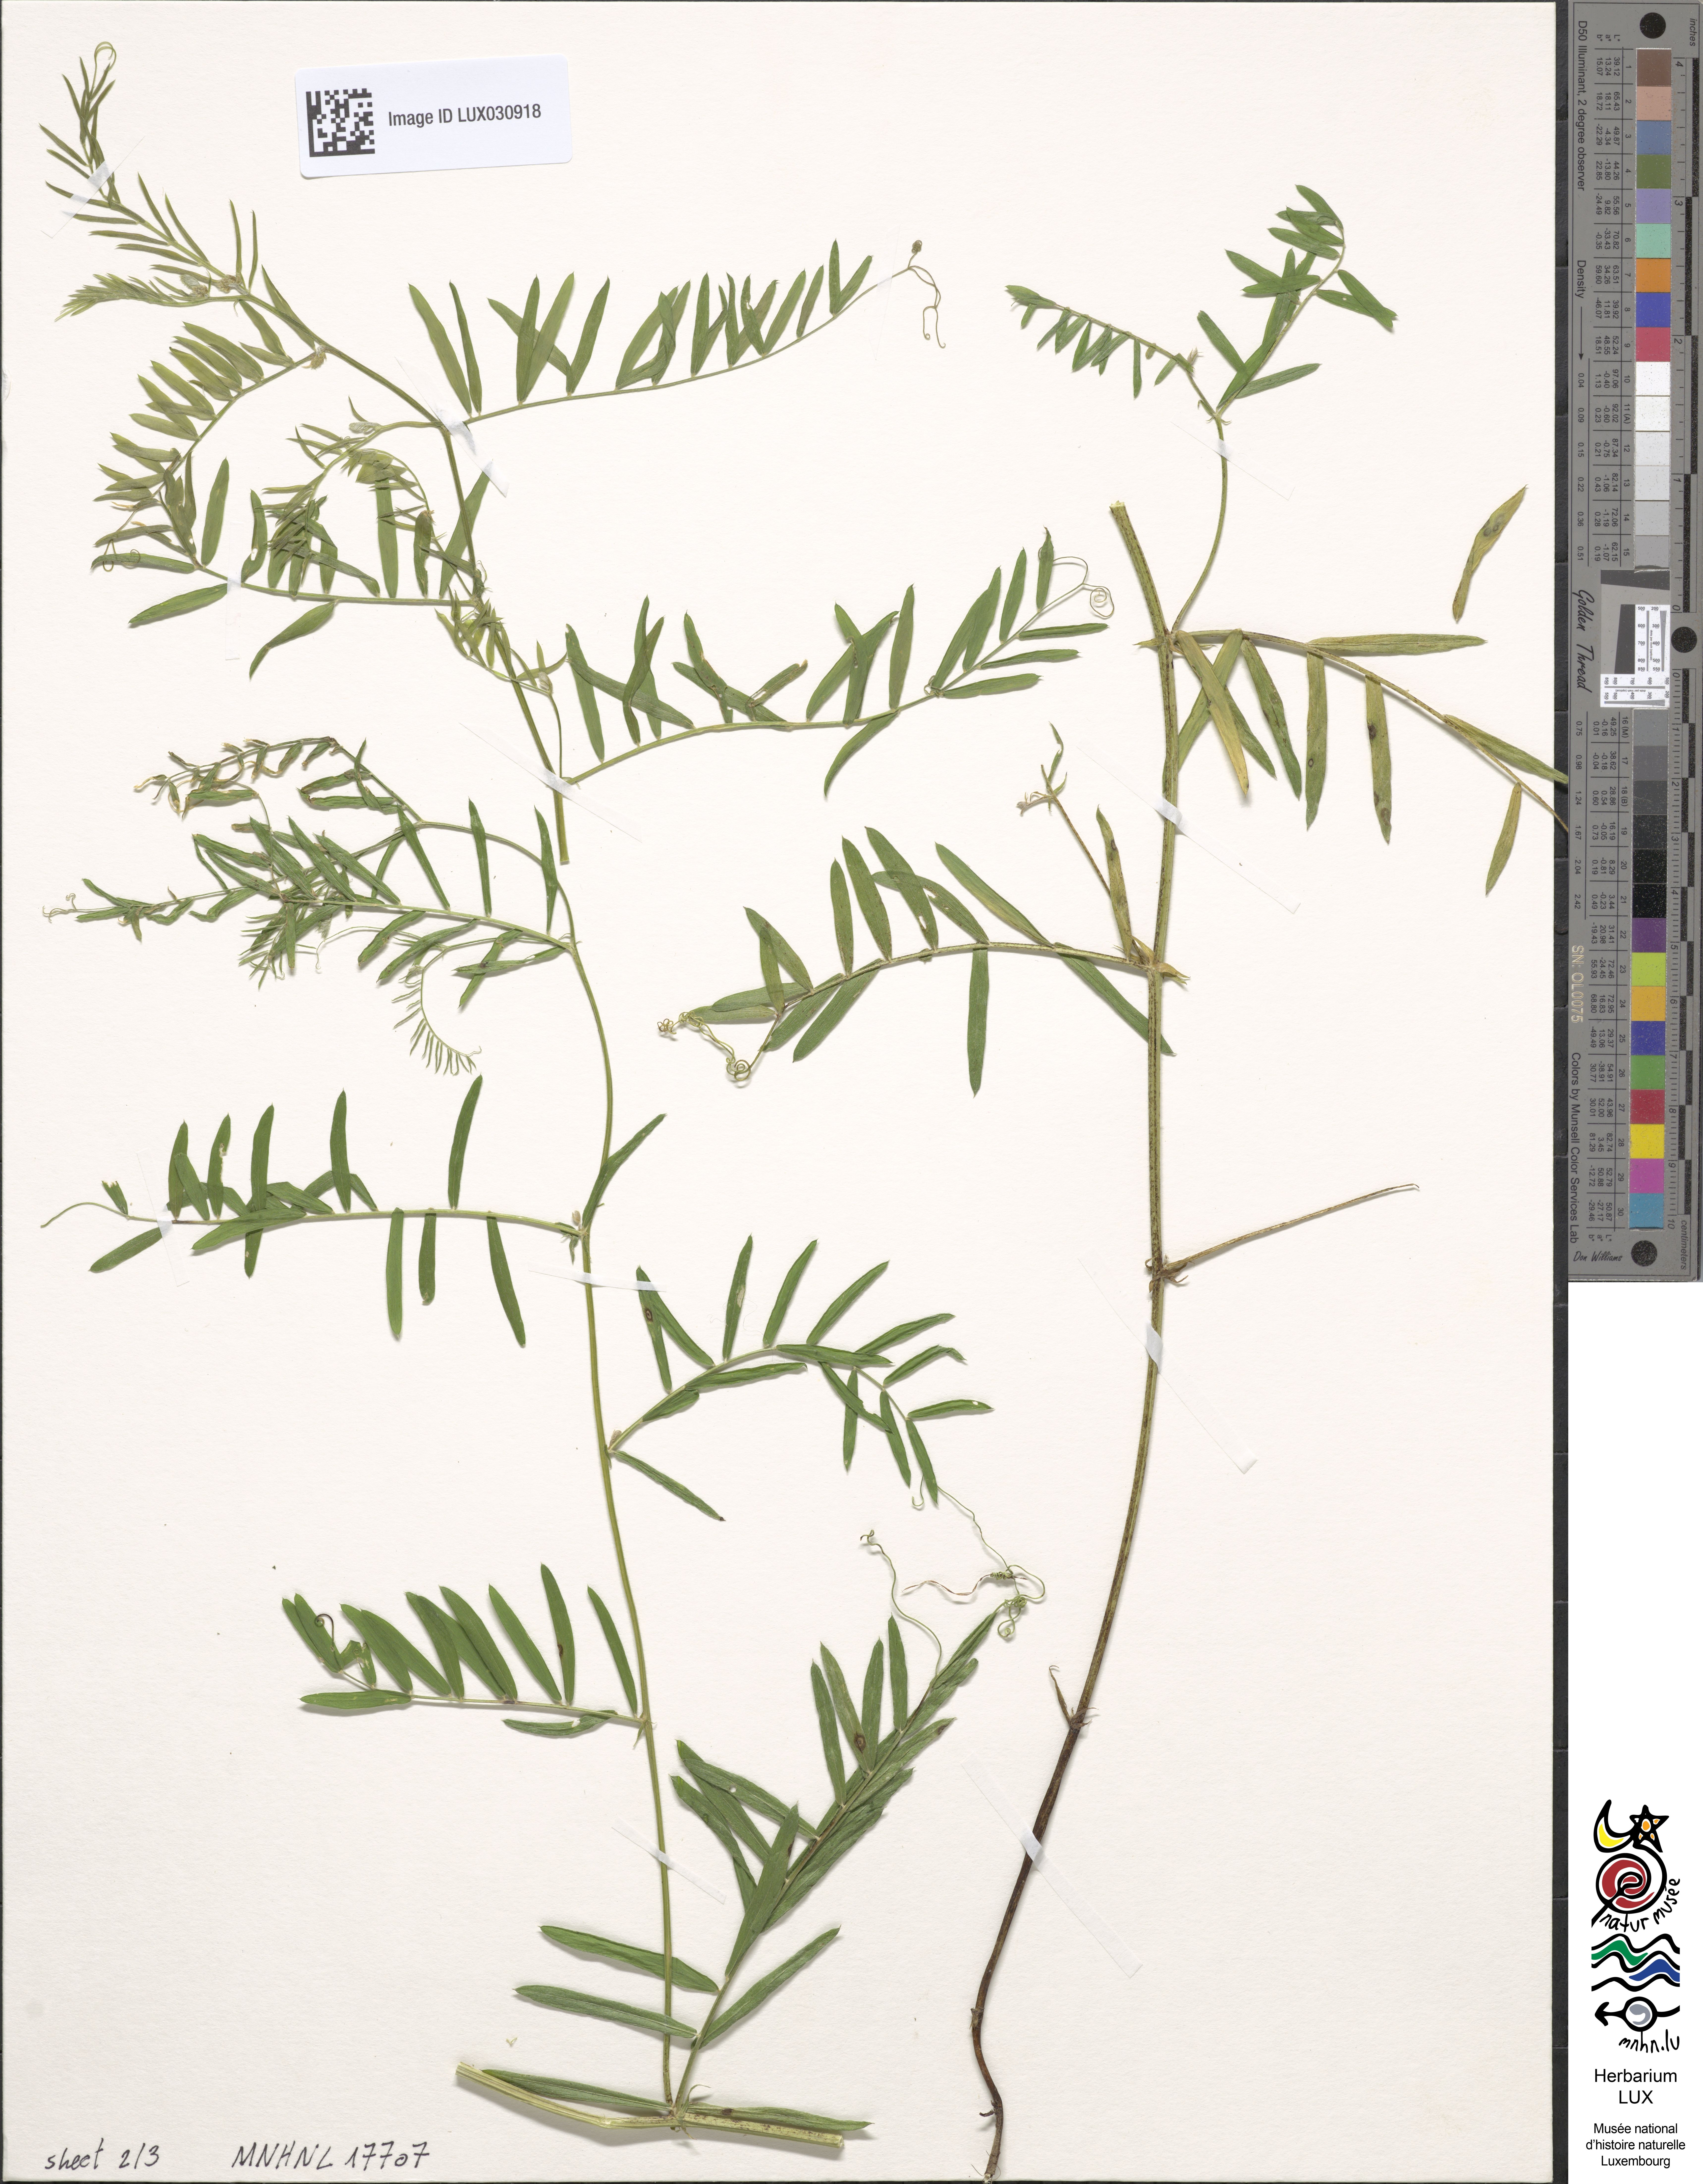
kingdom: Plantae
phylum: Tracheophyta
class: Magnoliopsida
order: Fabales
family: Fabaceae
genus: Vicia
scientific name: Vicia sativa
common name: Garden vetch
